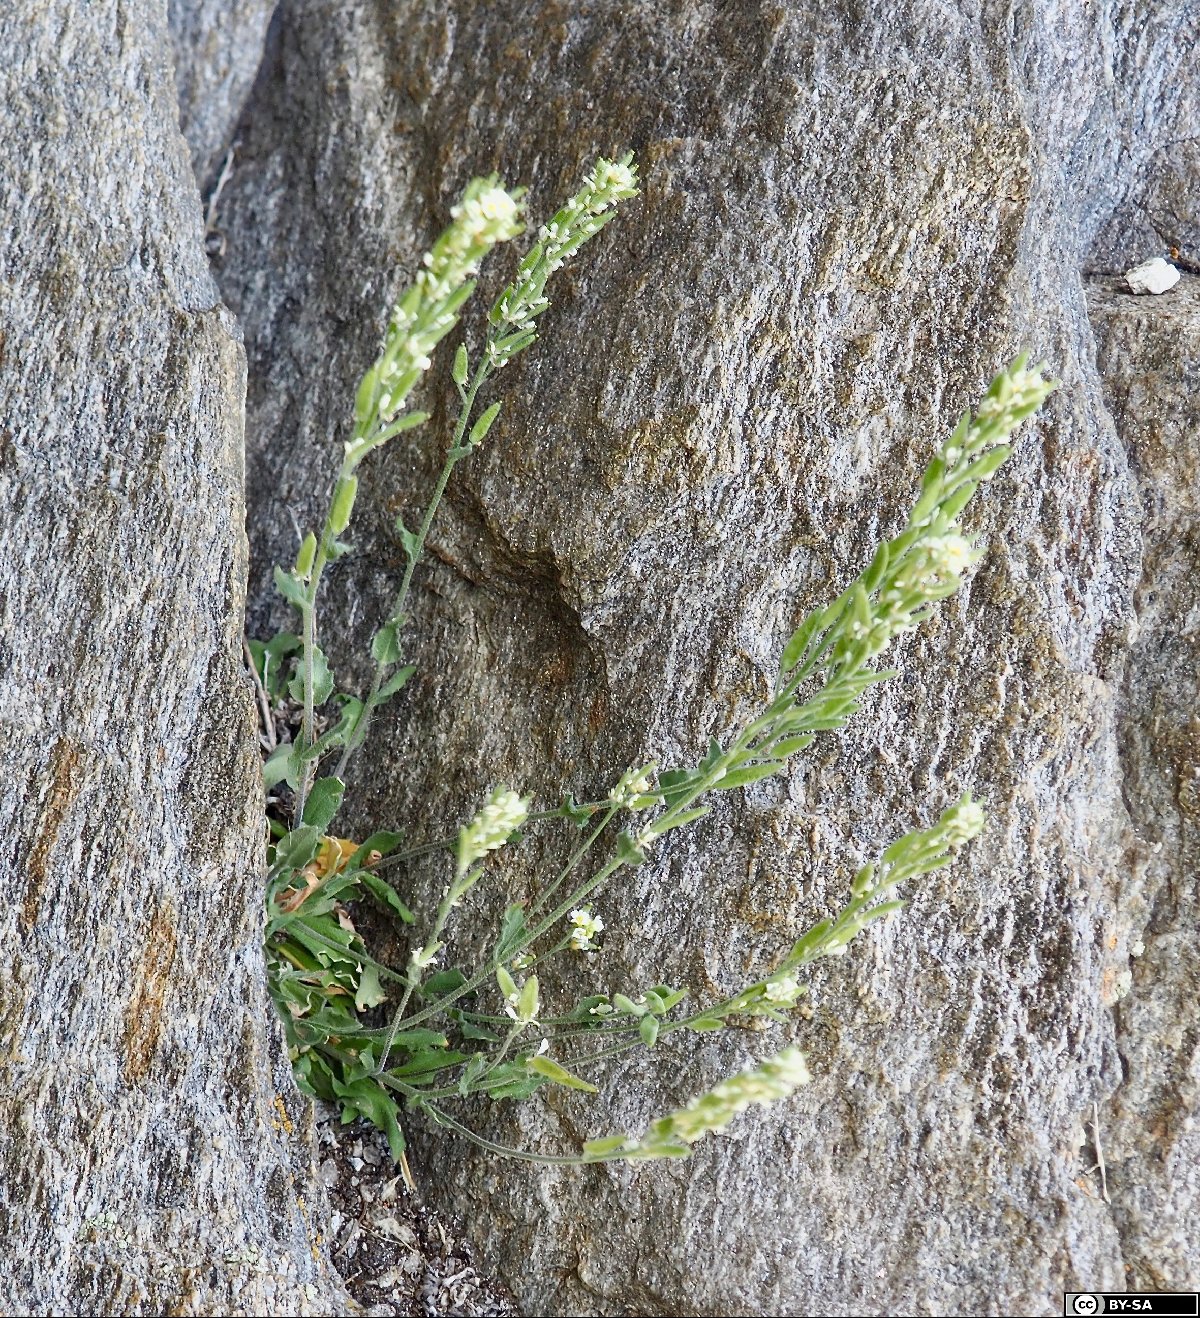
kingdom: Plantae
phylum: Tracheophyta
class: Magnoliopsida
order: Brassicales
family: Brassicaceae
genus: Draba
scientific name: Draba thomasii
